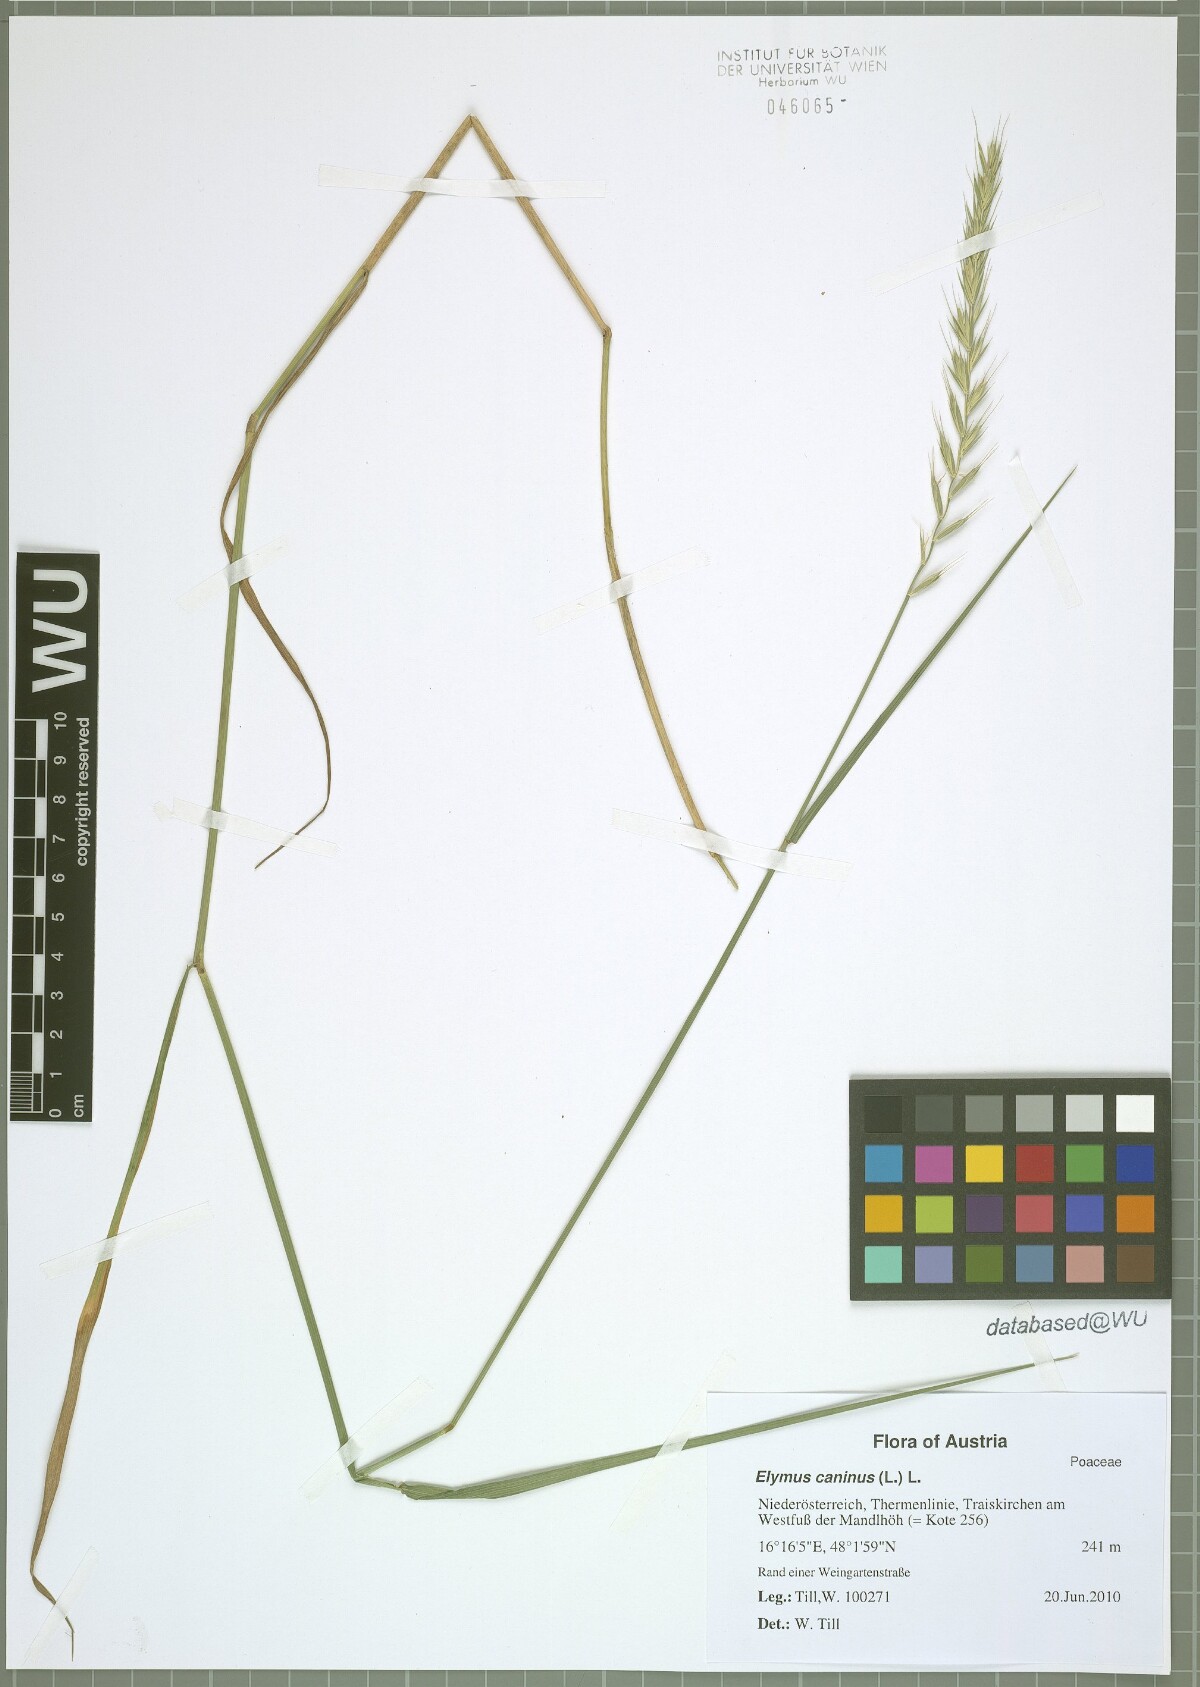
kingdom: Plantae
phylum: Tracheophyta
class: Liliopsida
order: Poales
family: Poaceae
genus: Elymus
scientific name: Elymus caninus
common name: Bearded couch
